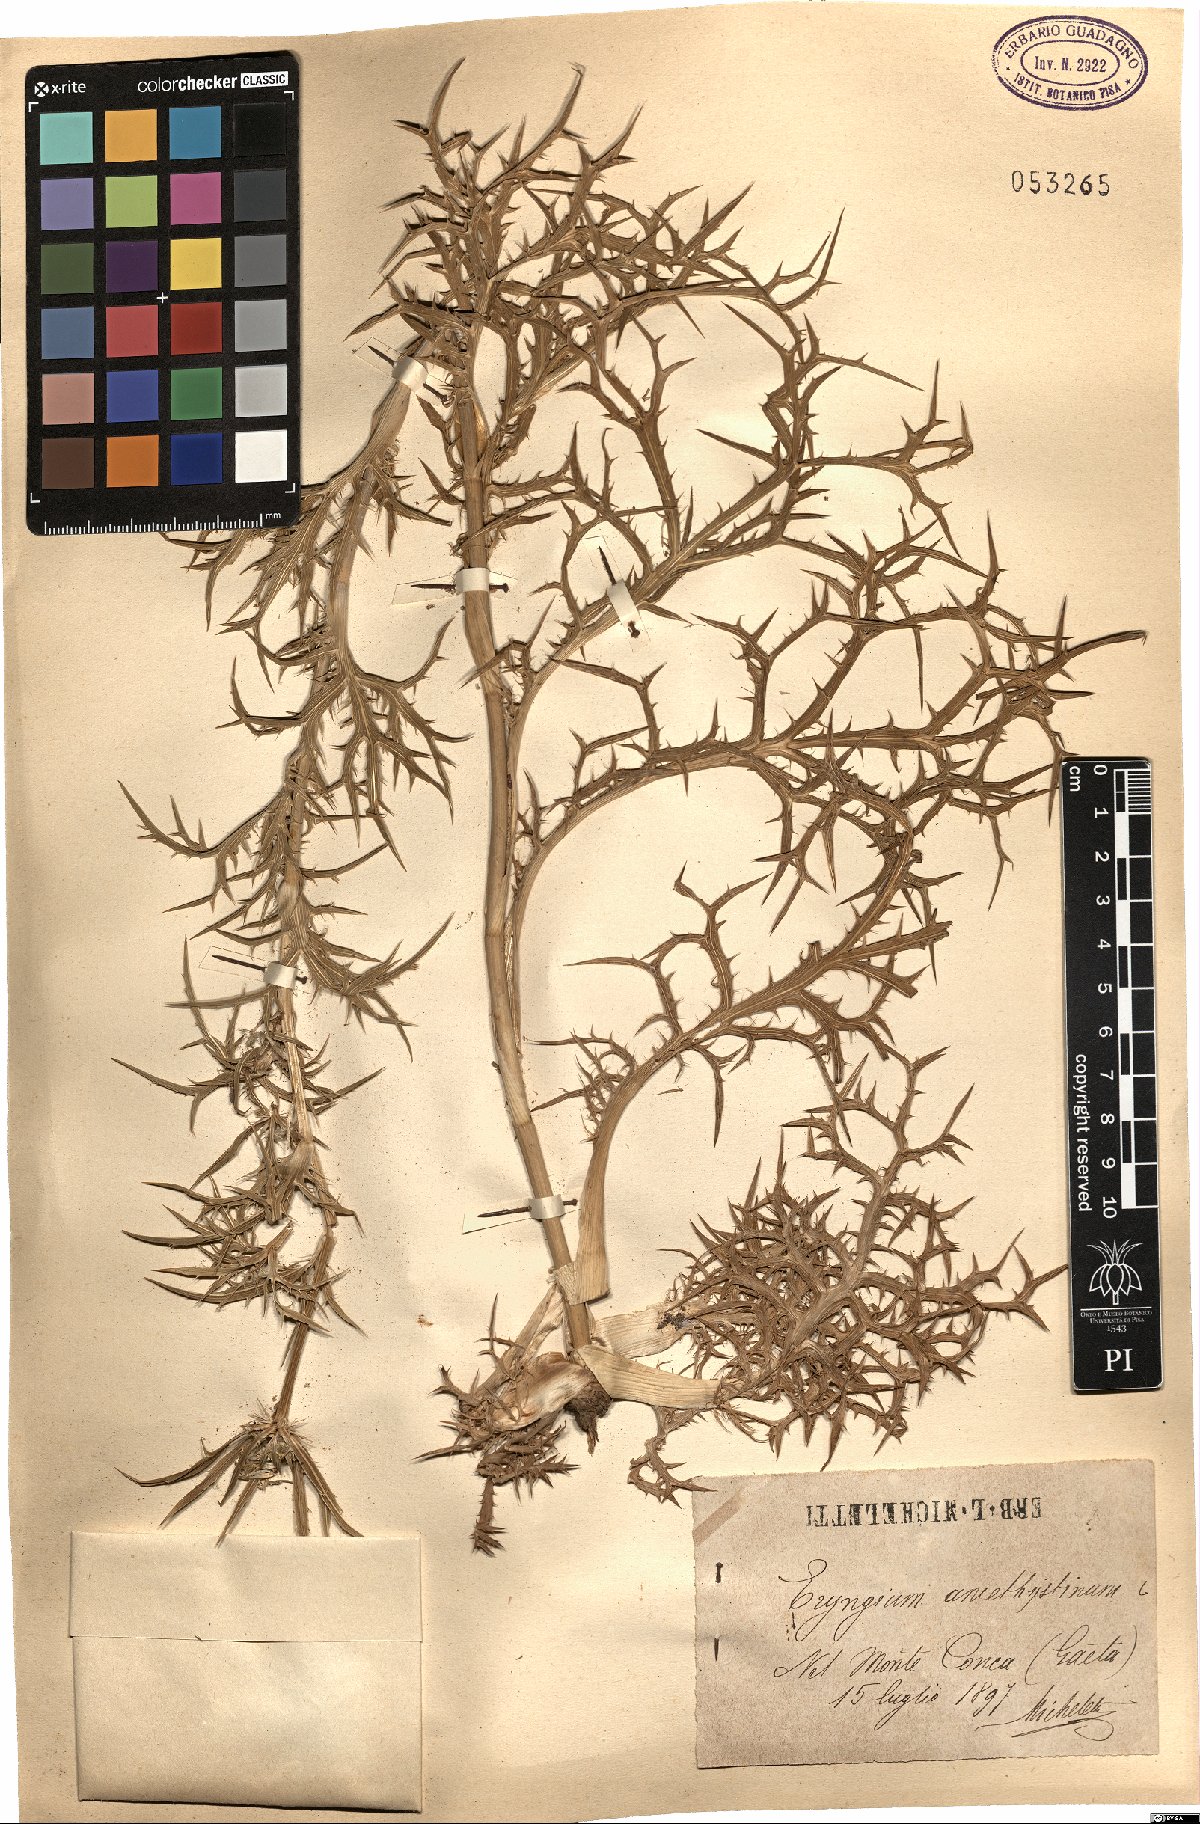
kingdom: Plantae
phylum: Tracheophyta
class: Magnoliopsida
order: Apiales
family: Apiaceae
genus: Eryngium
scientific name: Eryngium amethystinum
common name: Amethyst eryngo
